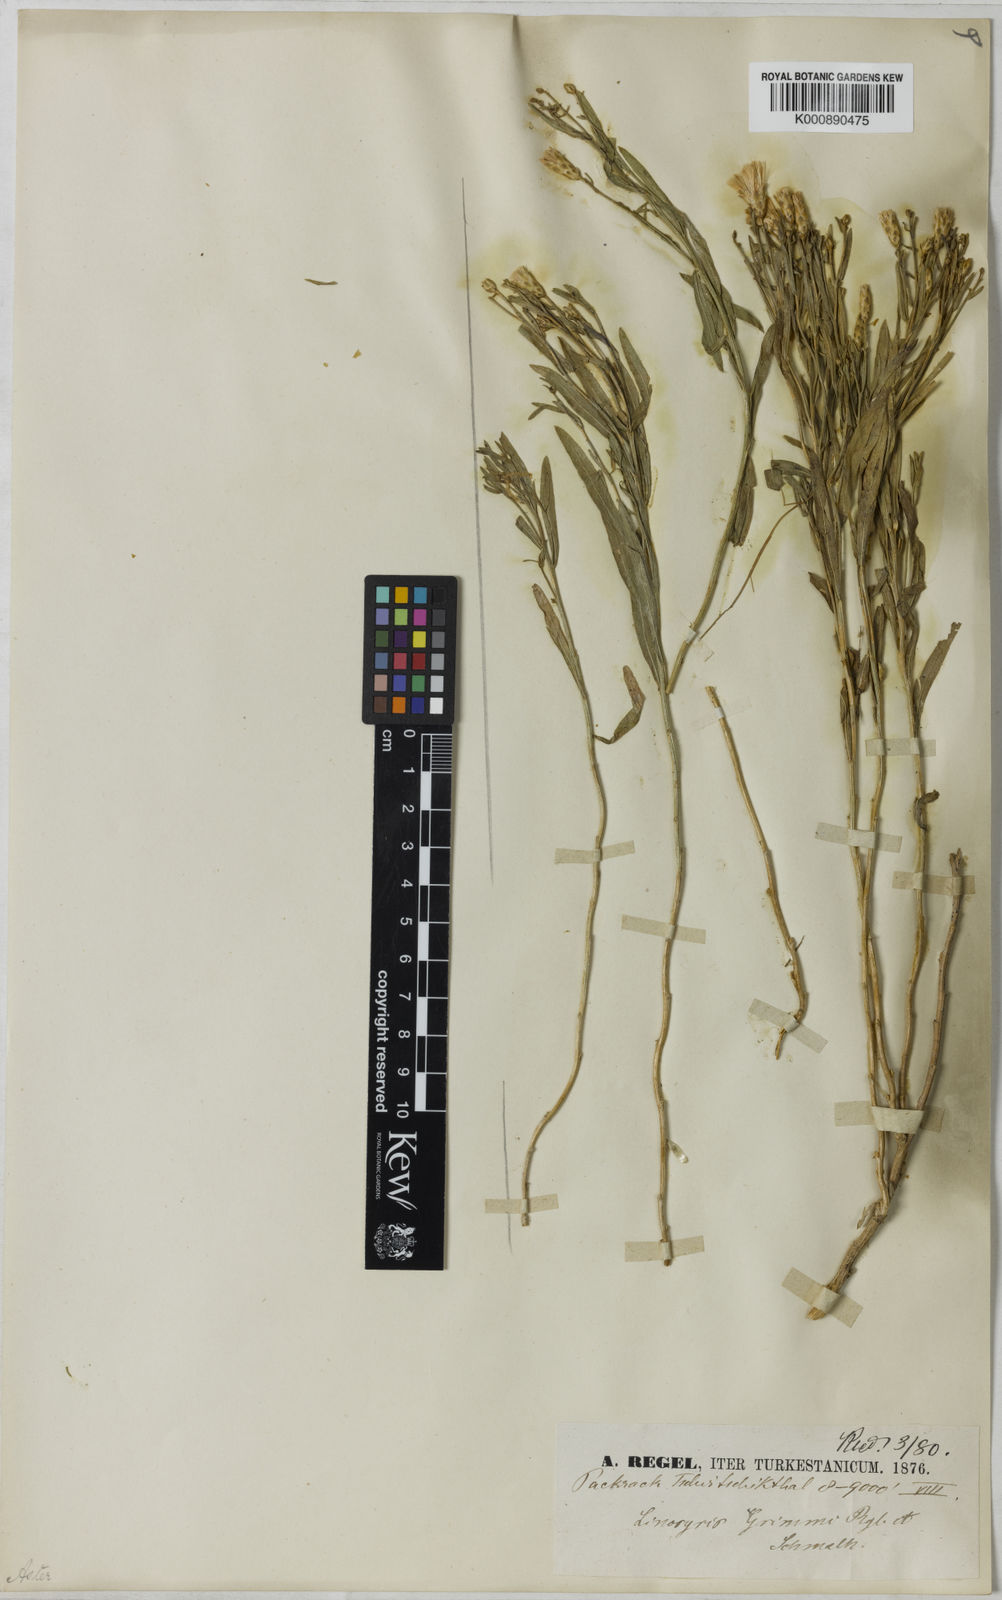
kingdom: Plantae
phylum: Tracheophyta
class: Magnoliopsida
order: Asterales
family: Asteraceae
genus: Aster
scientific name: Aster
